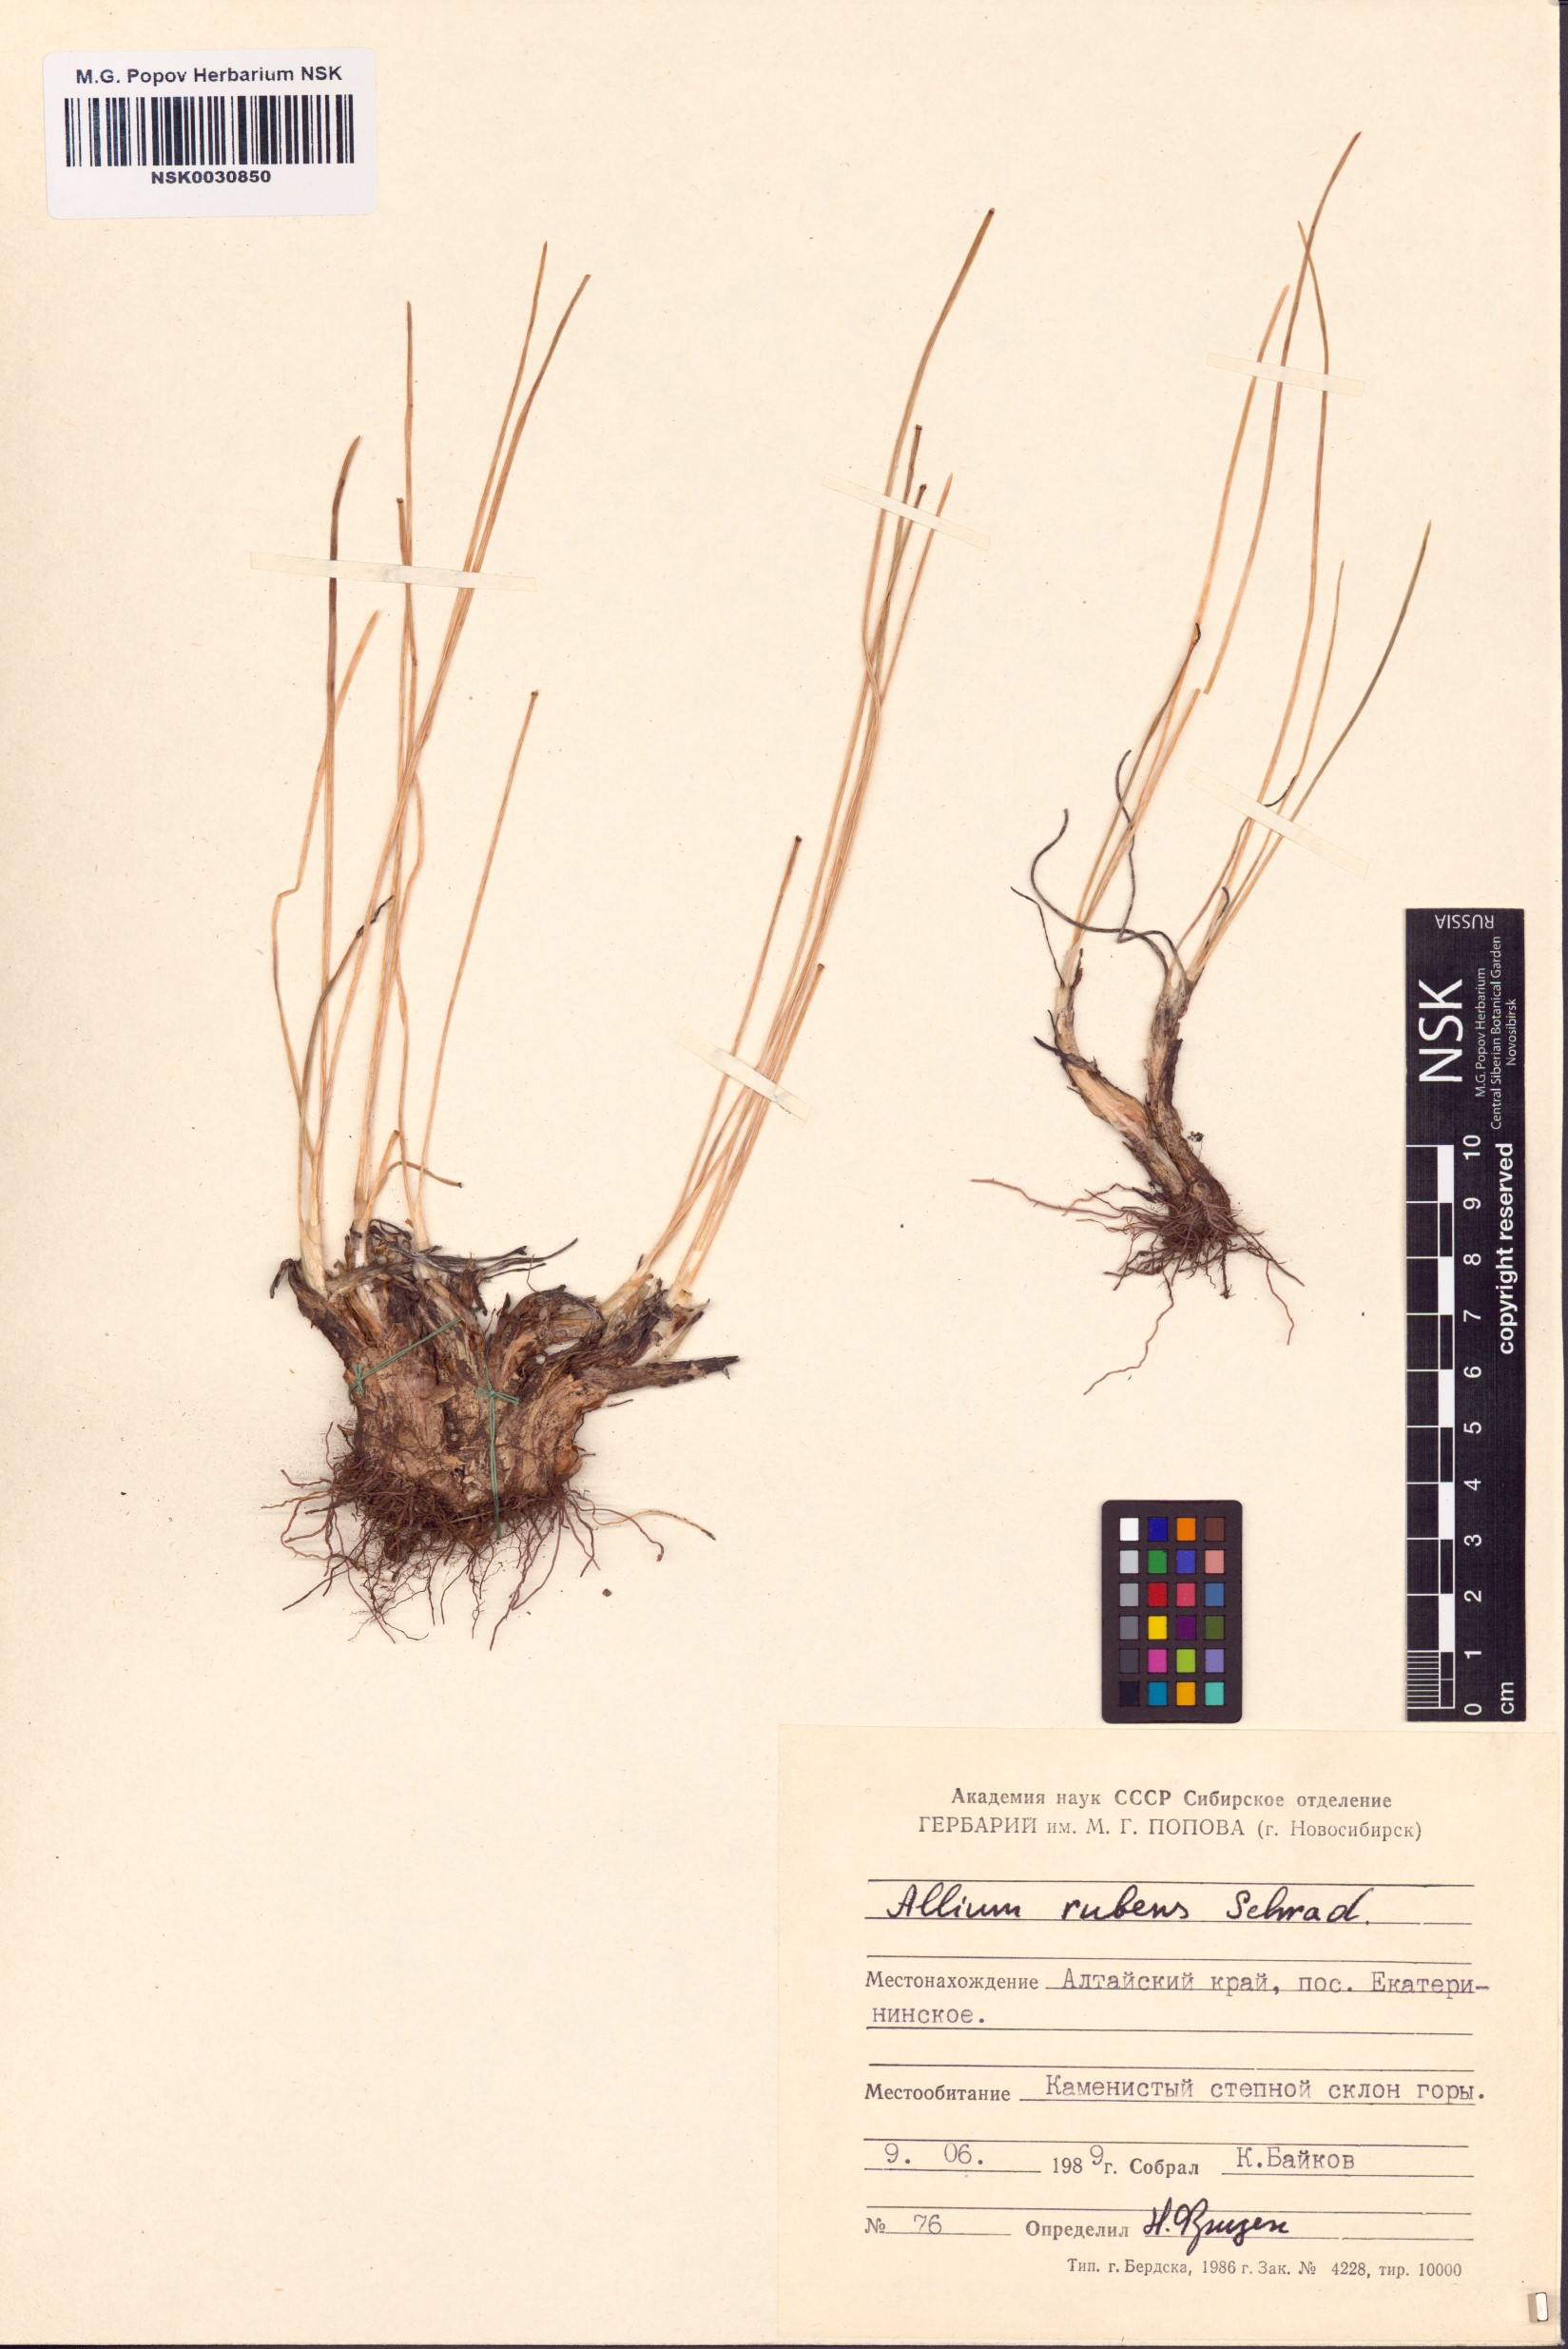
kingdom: Plantae
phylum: Tracheophyta
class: Liliopsida
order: Asparagales
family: Amaryllidaceae
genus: Allium
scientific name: Allium rubens
